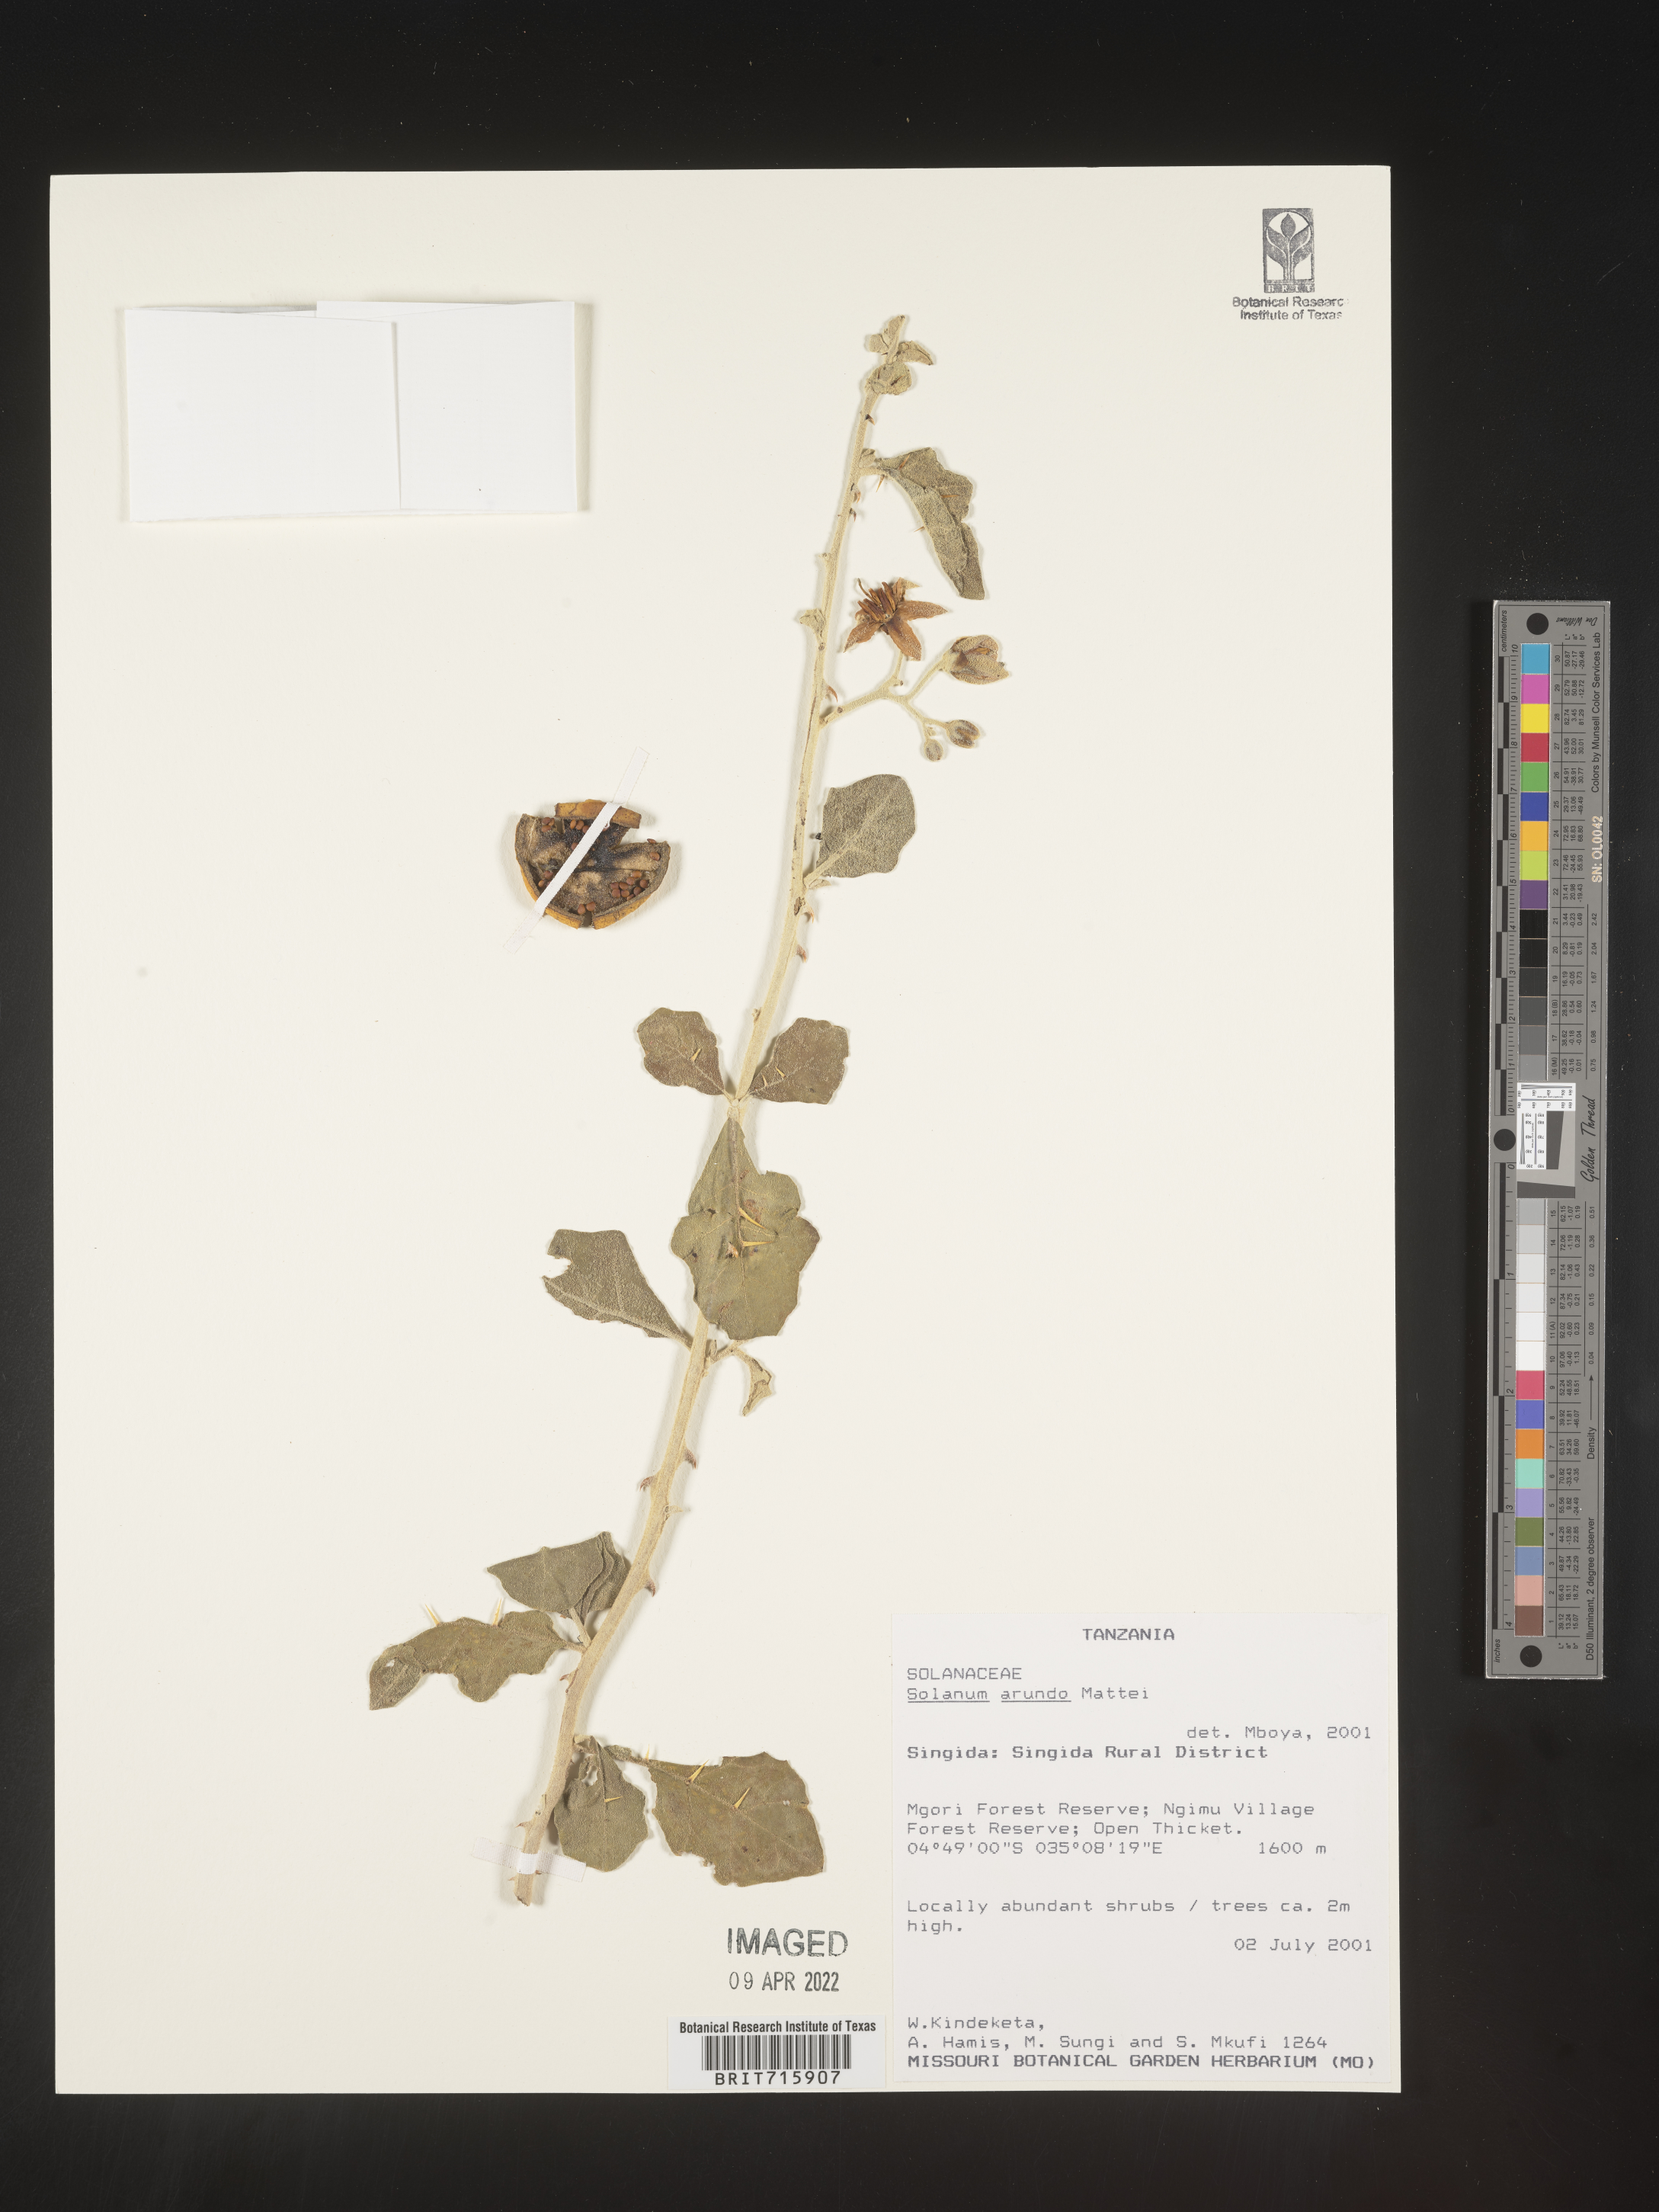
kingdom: Plantae
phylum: Tracheophyta
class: Magnoliopsida
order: Solanales
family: Solanaceae
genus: Solanum
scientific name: Solanum
